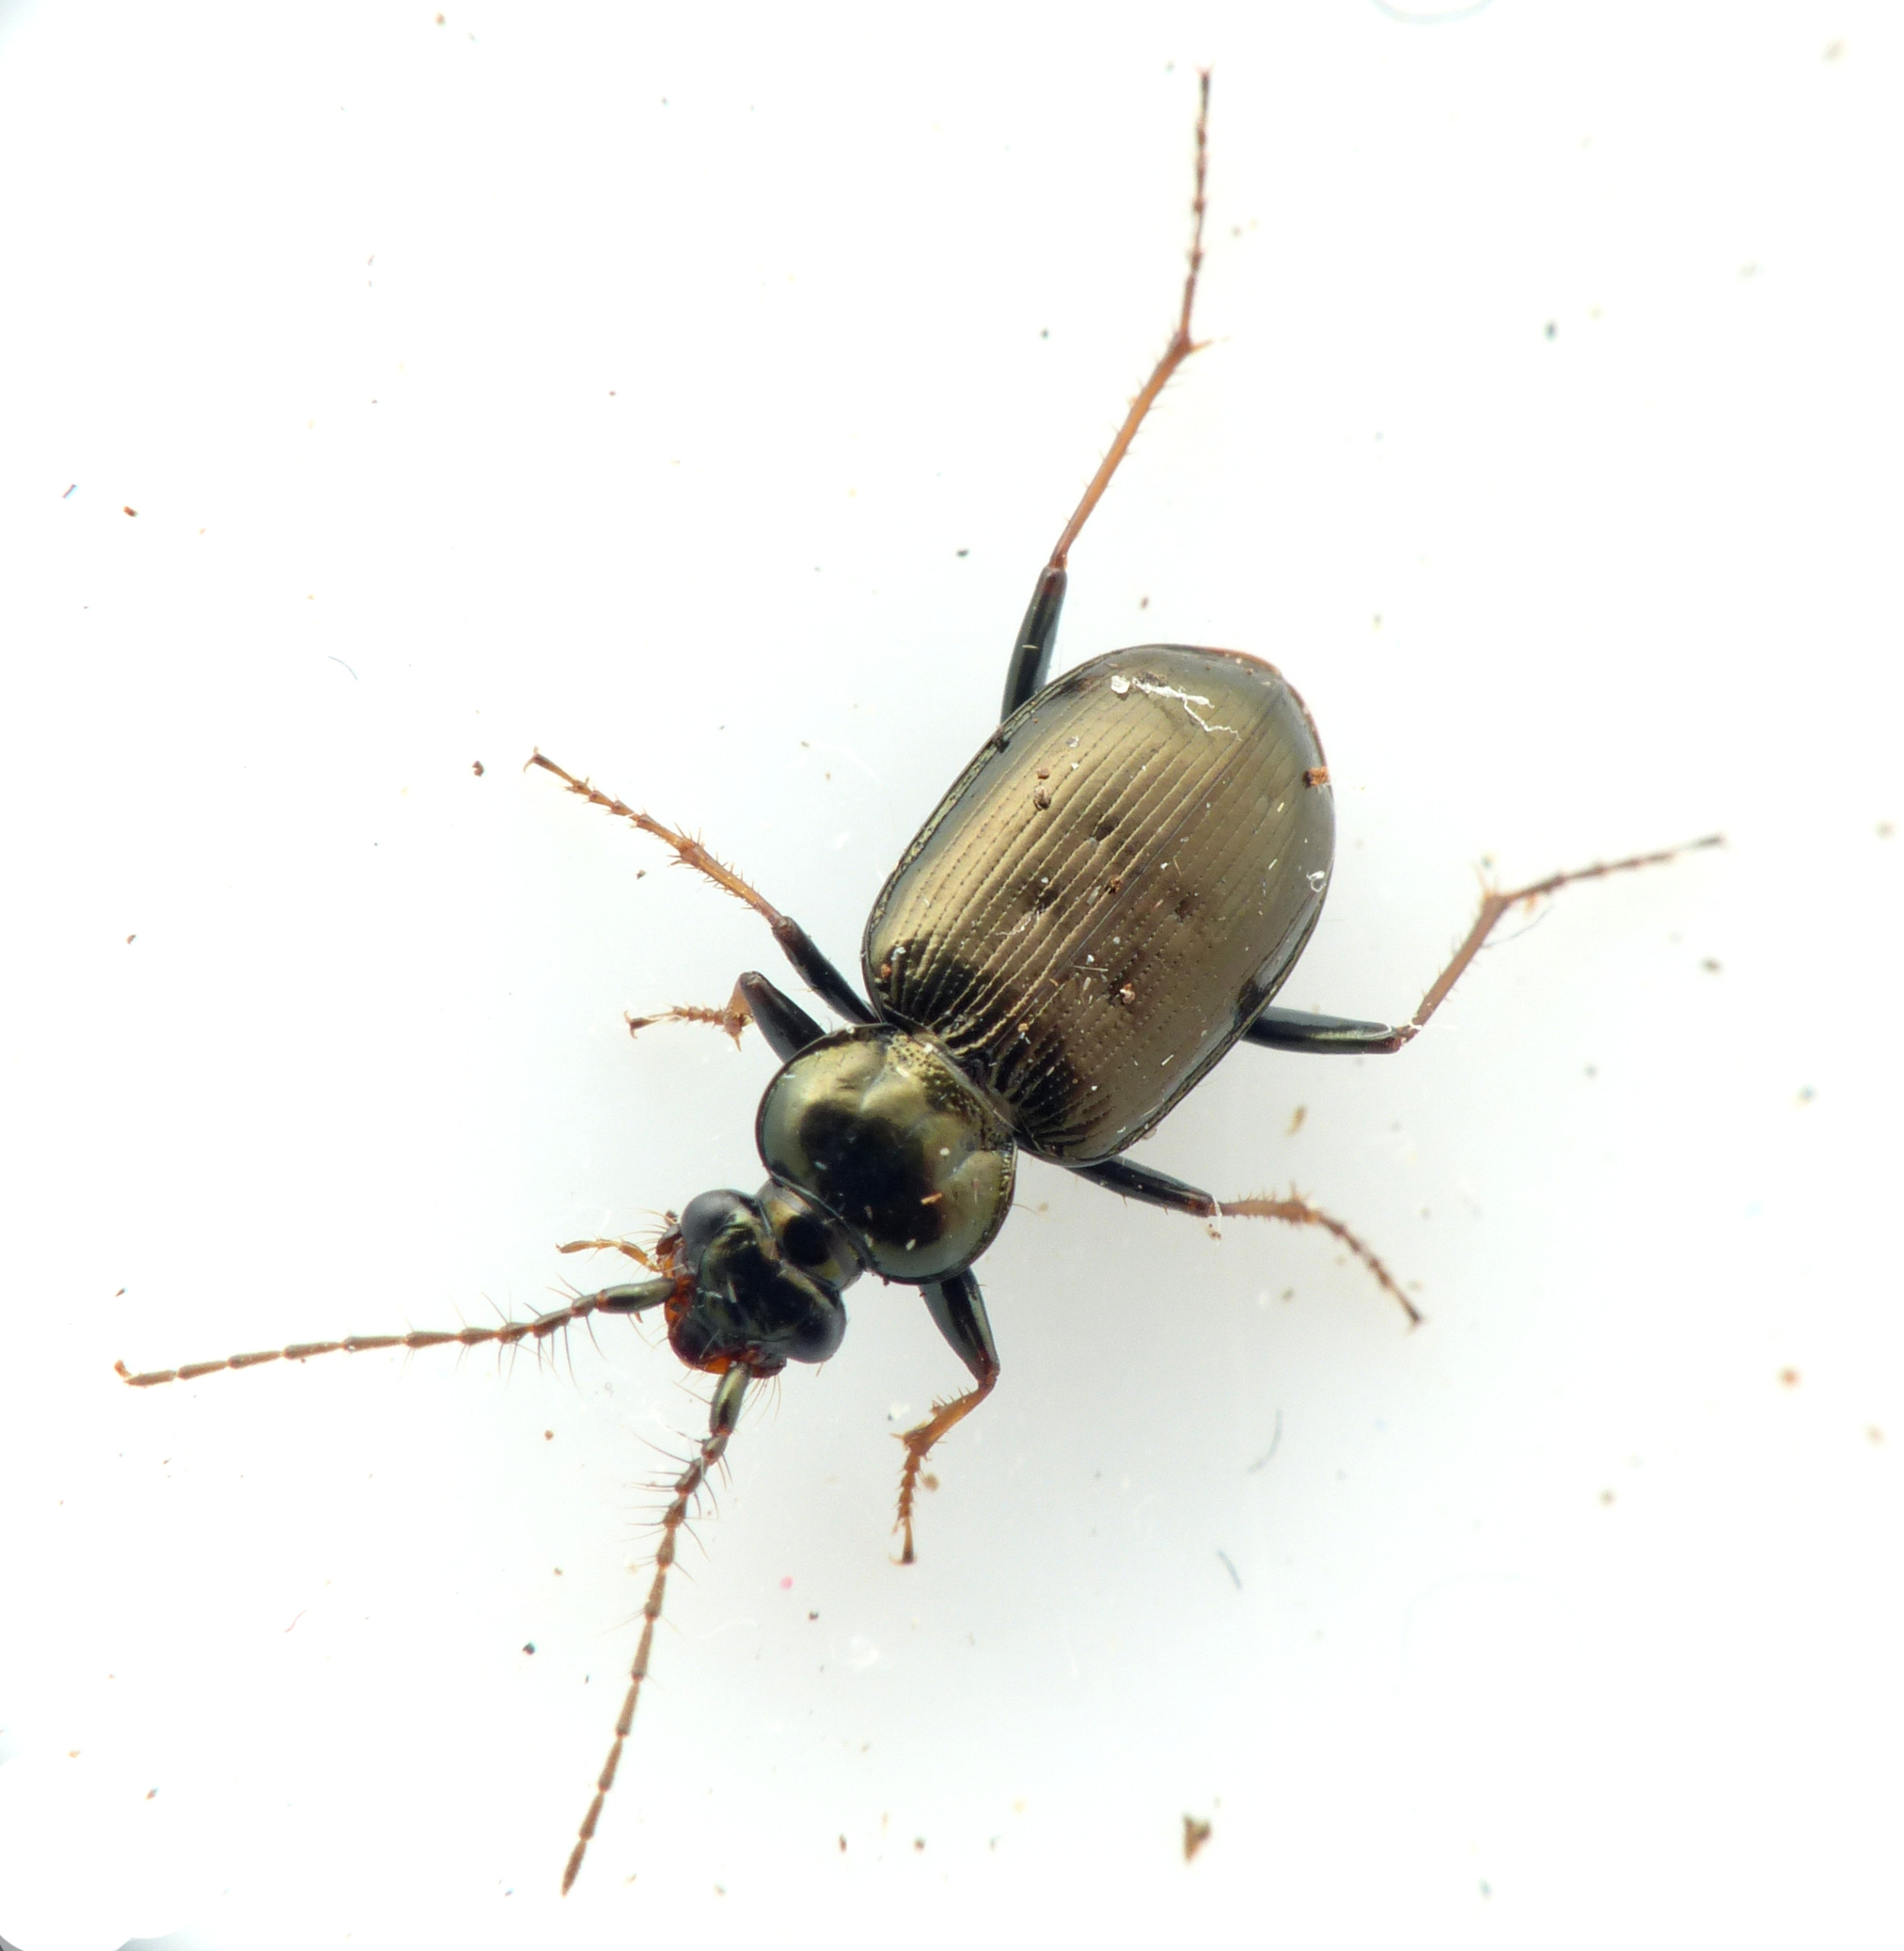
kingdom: Animalia
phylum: Arthropoda
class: Insecta
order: Coleoptera
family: Carabidae
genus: Loricera
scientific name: Loricera pilicornis
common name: Børsteløber
